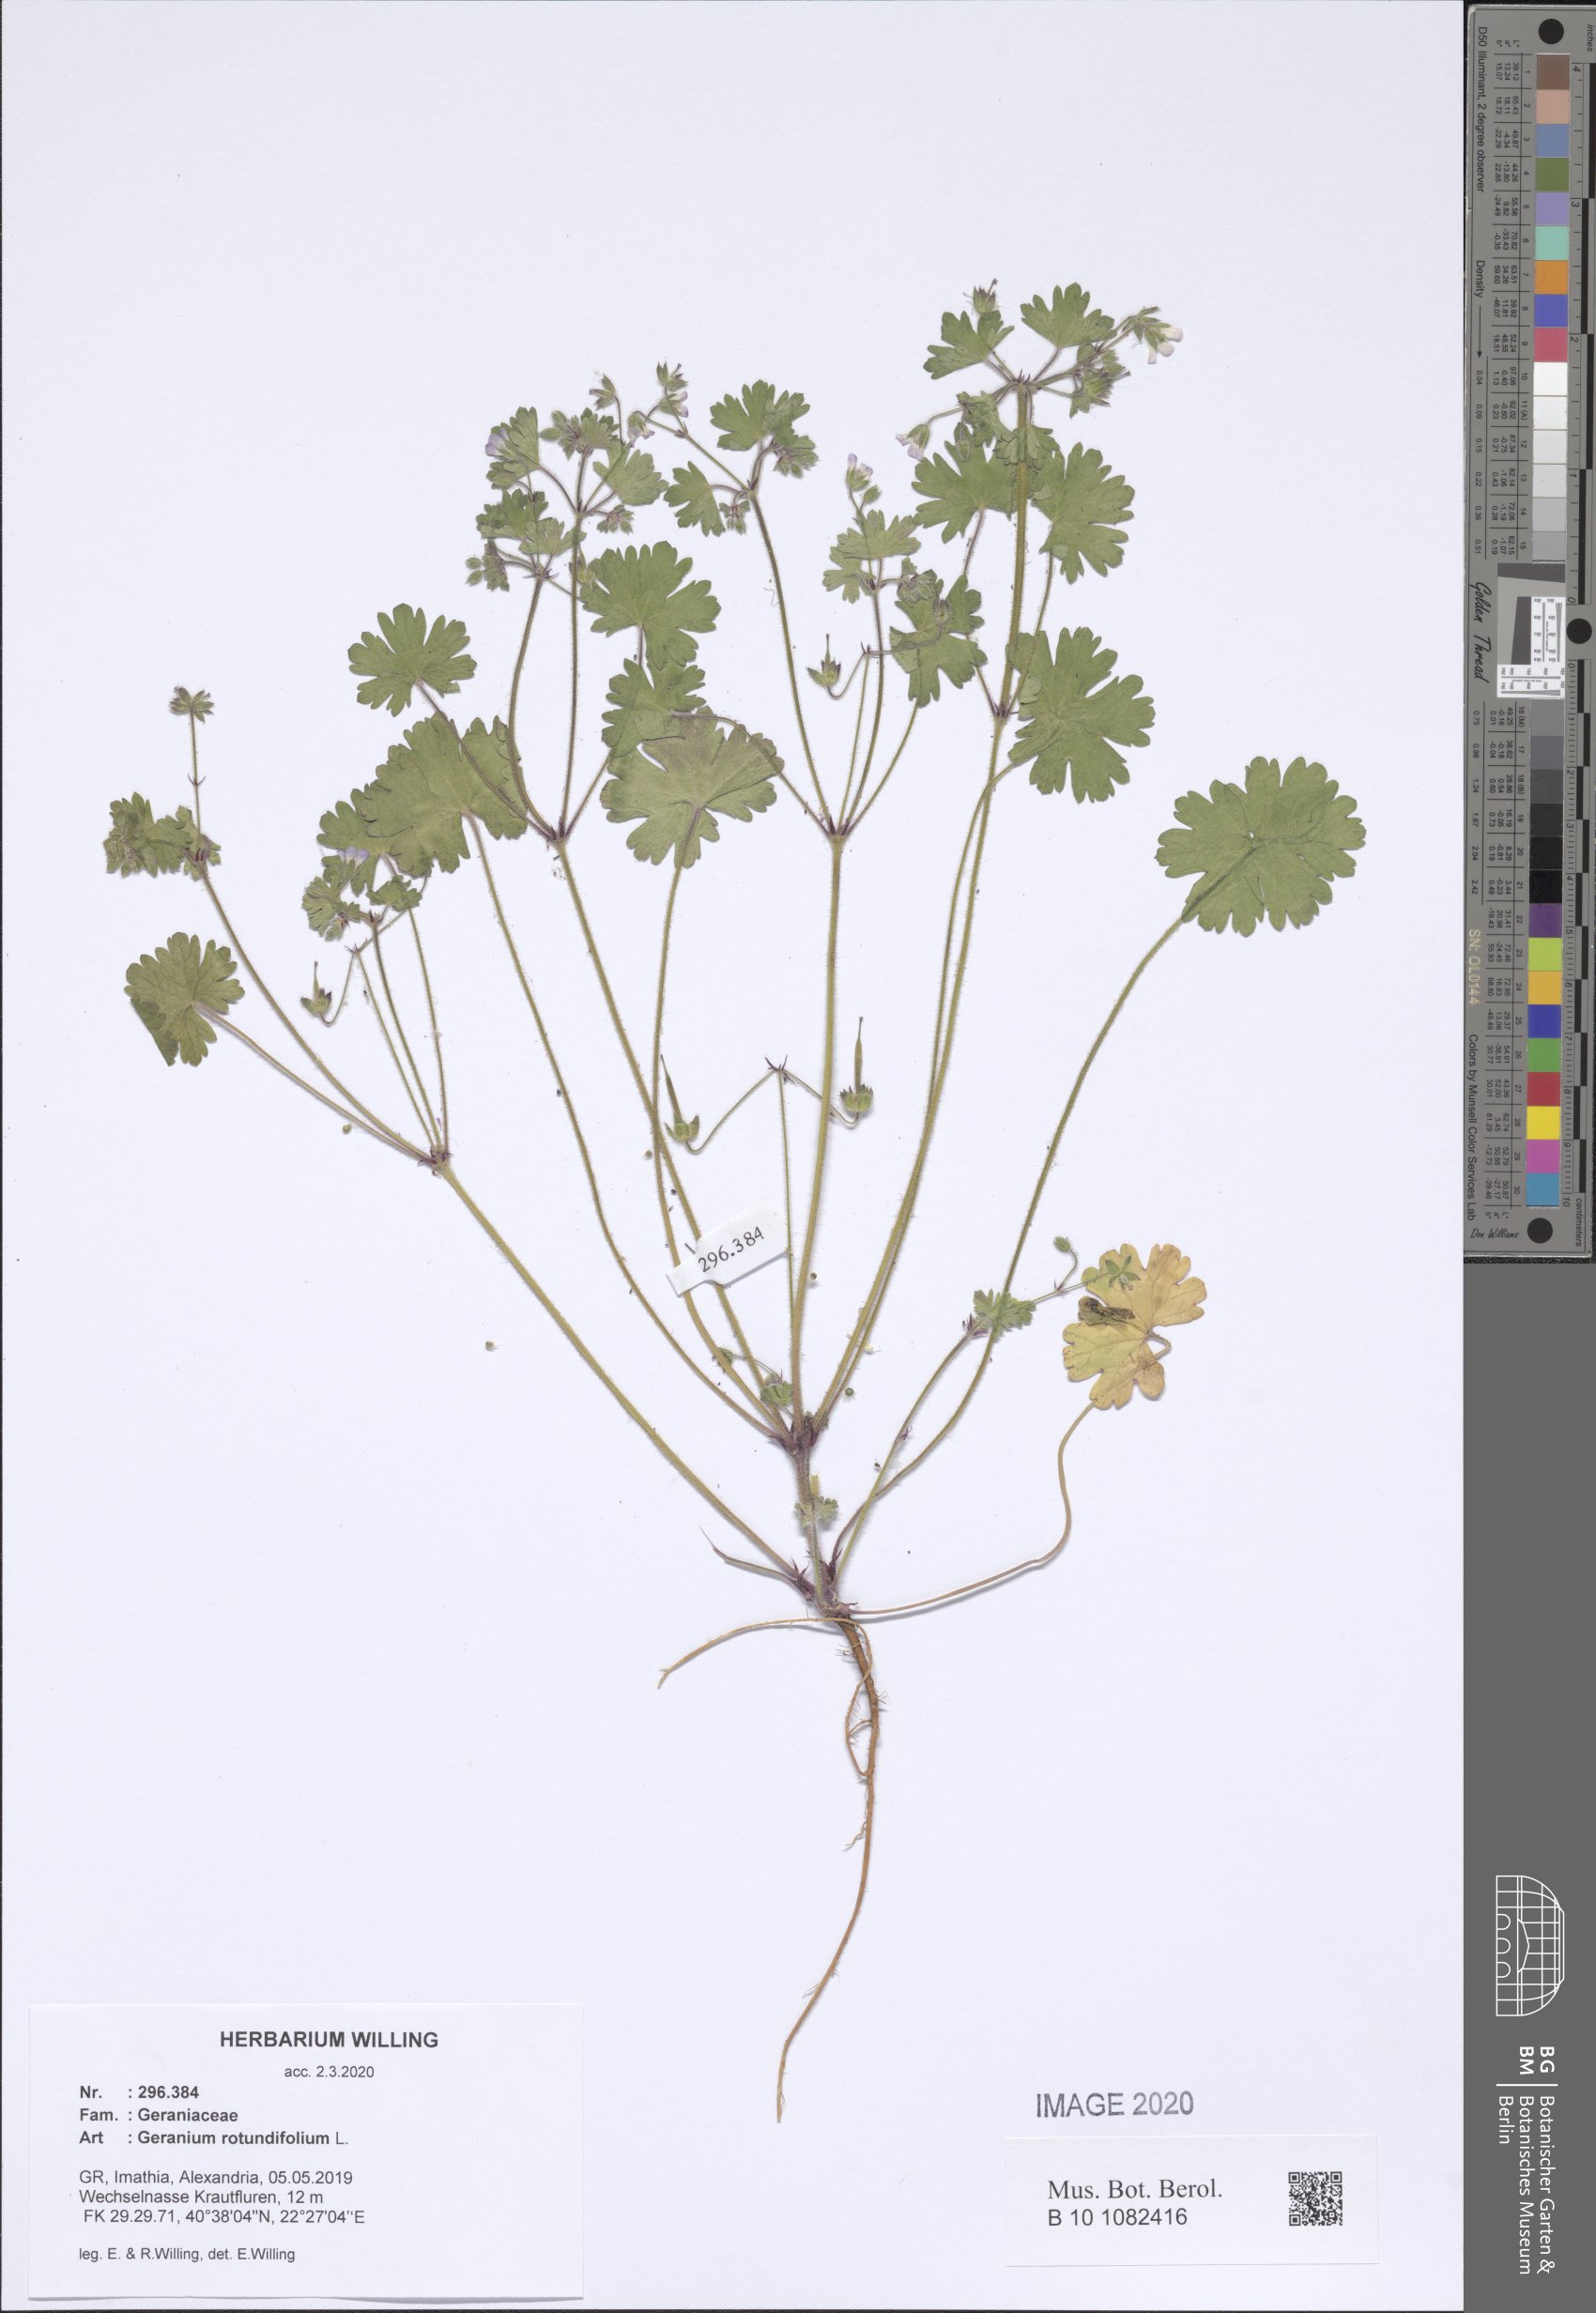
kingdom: Plantae
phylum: Tracheophyta
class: Magnoliopsida
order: Geraniales
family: Geraniaceae
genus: Geranium
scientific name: Geranium rotundifolium
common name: Round-leaved crane's-bill
